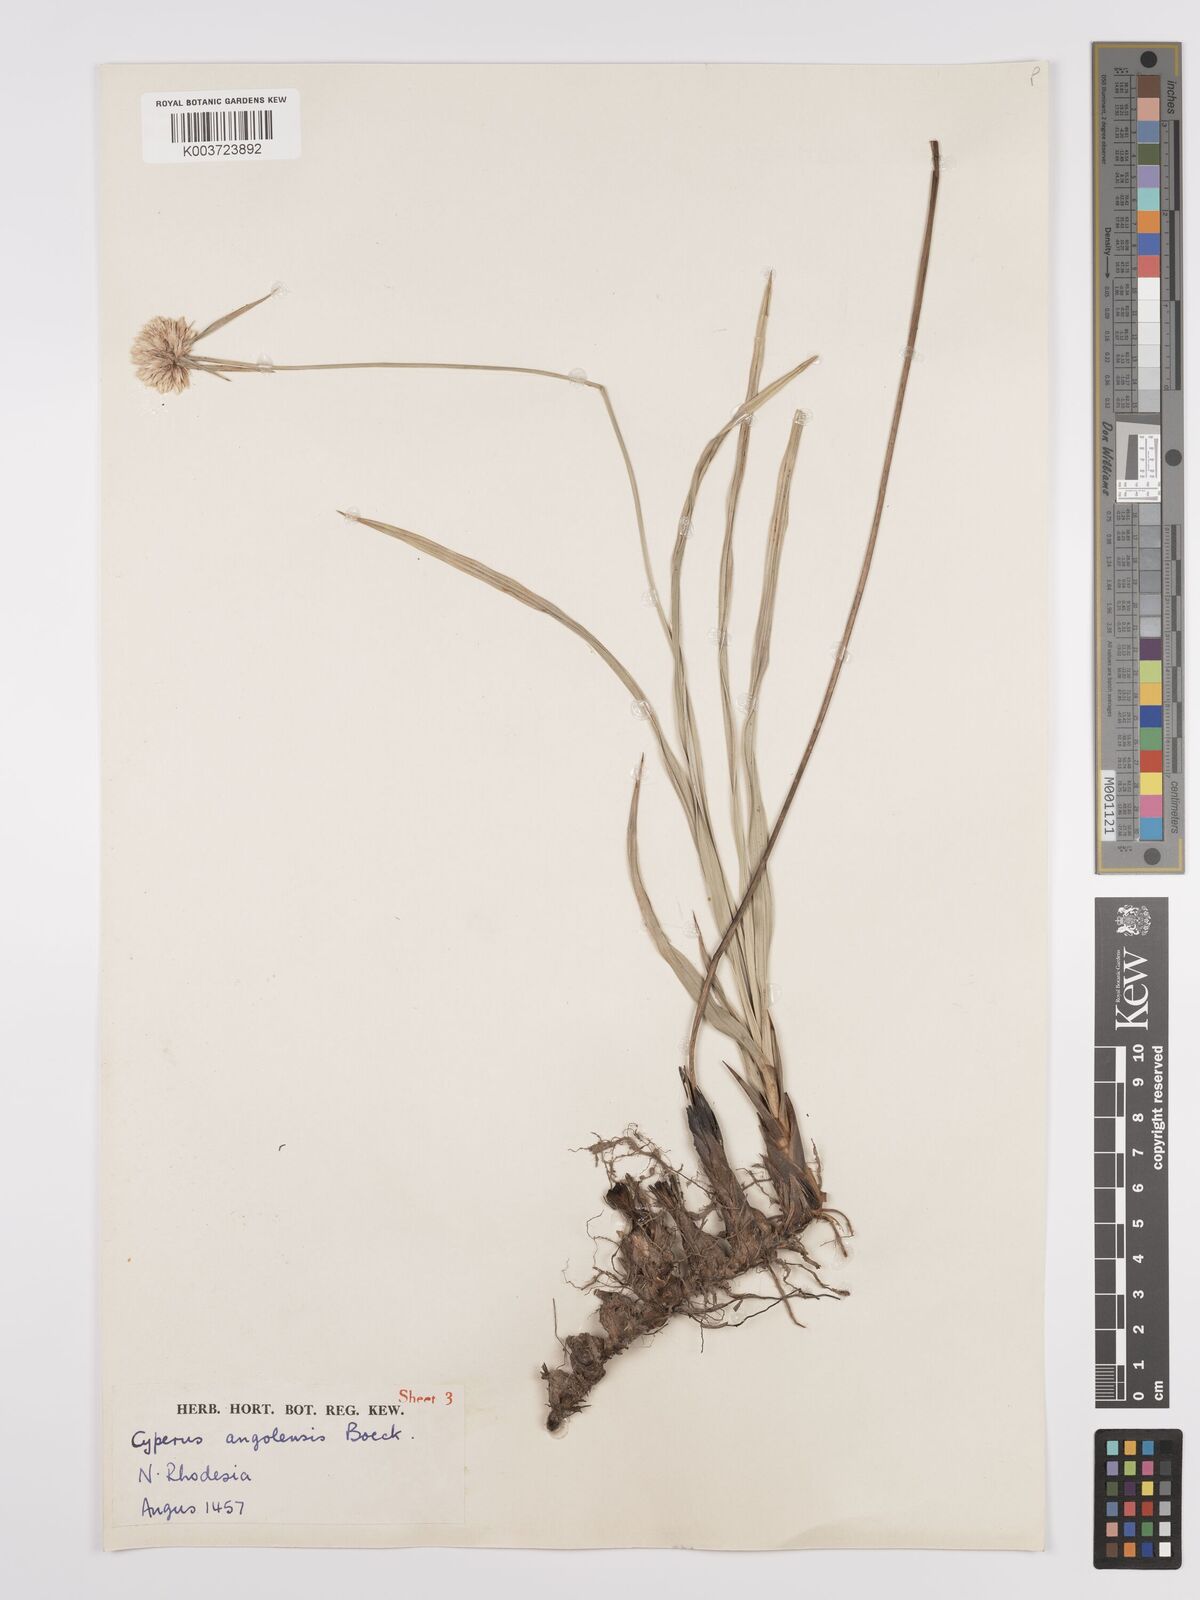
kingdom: Plantae
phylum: Tracheophyta
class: Liliopsida
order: Poales
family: Cyperaceae
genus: Cyperus
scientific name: Cyperus angolensis
